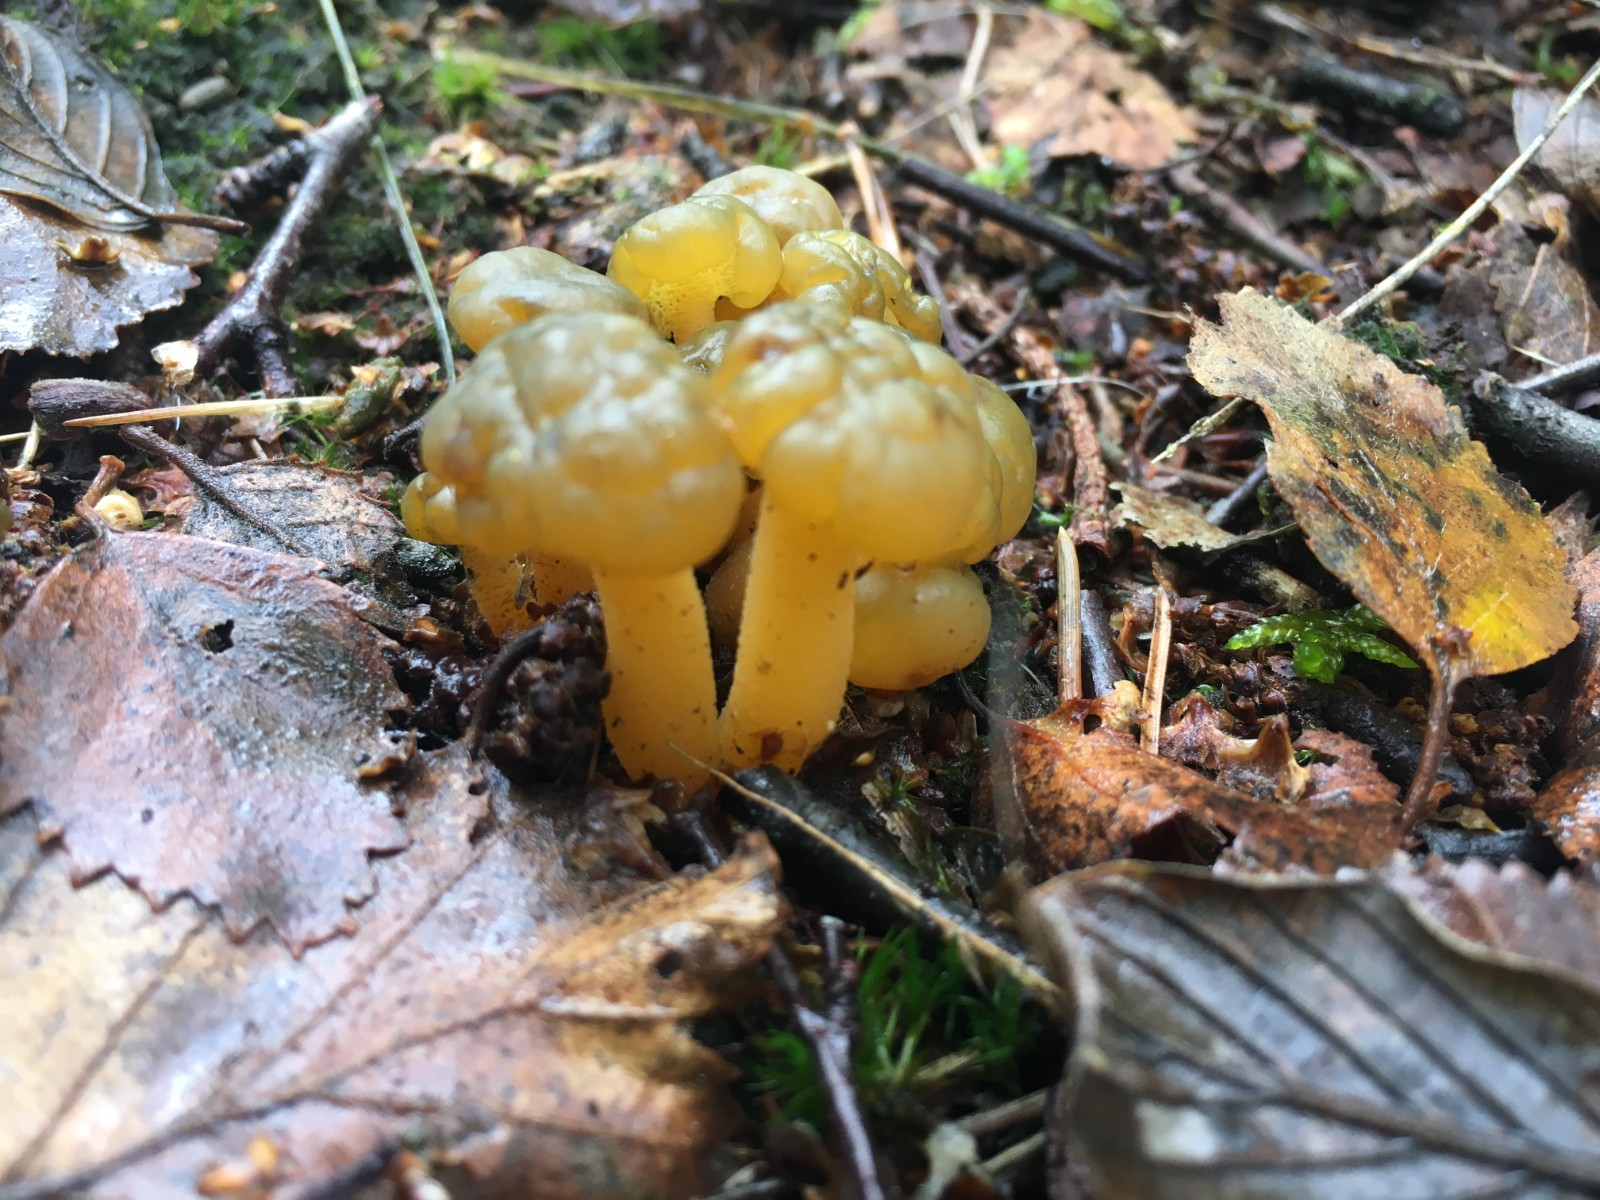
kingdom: Fungi
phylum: Ascomycota
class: Leotiomycetes
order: Leotiales
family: Leotiaceae
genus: Leotia
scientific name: Leotia lubrica
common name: ravsvamp
